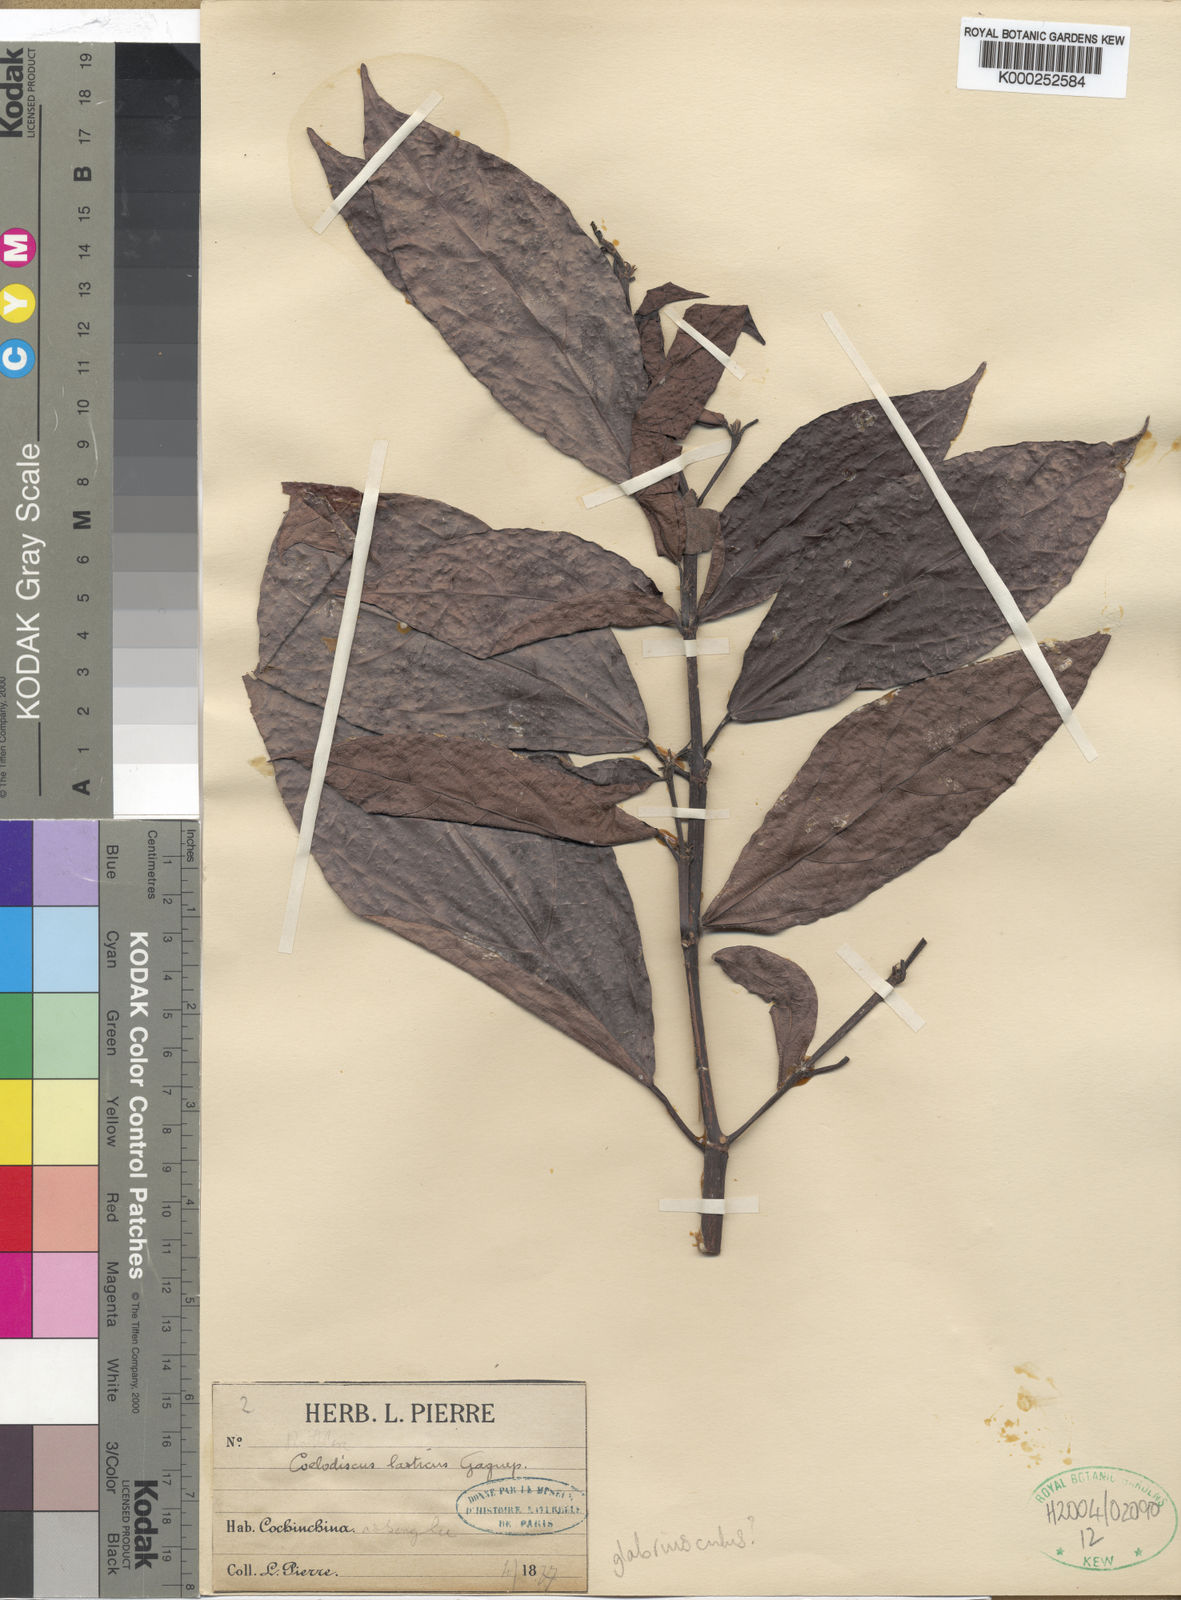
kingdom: Plantae
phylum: Tracheophyta
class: Magnoliopsida
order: Malpighiales
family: Euphorbiaceae
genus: Mallotus
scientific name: Mallotus glabriusculus
